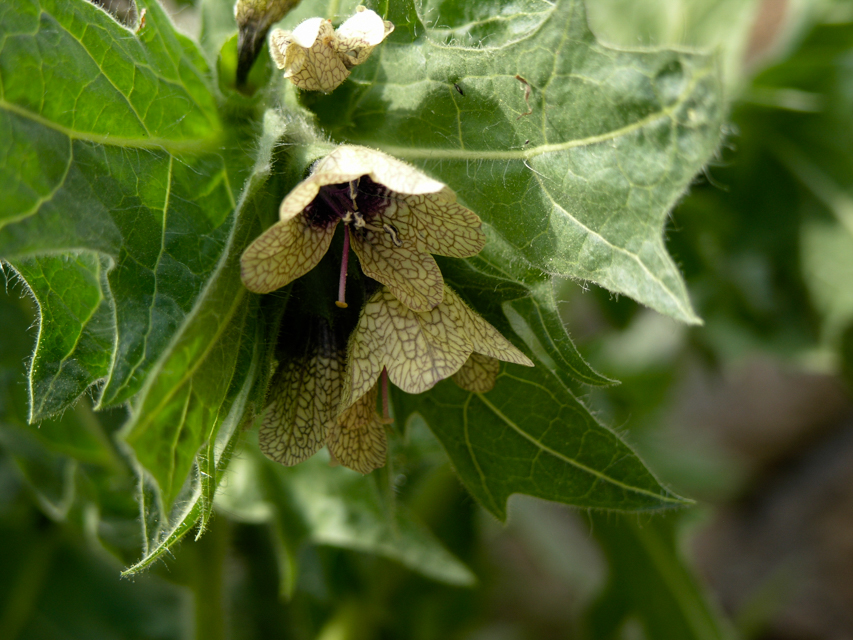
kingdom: Plantae
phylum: Tracheophyta
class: Magnoliopsida
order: Solanales
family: Solanaceae
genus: Hyoscyamus
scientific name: Hyoscyamus niger
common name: Henbane
